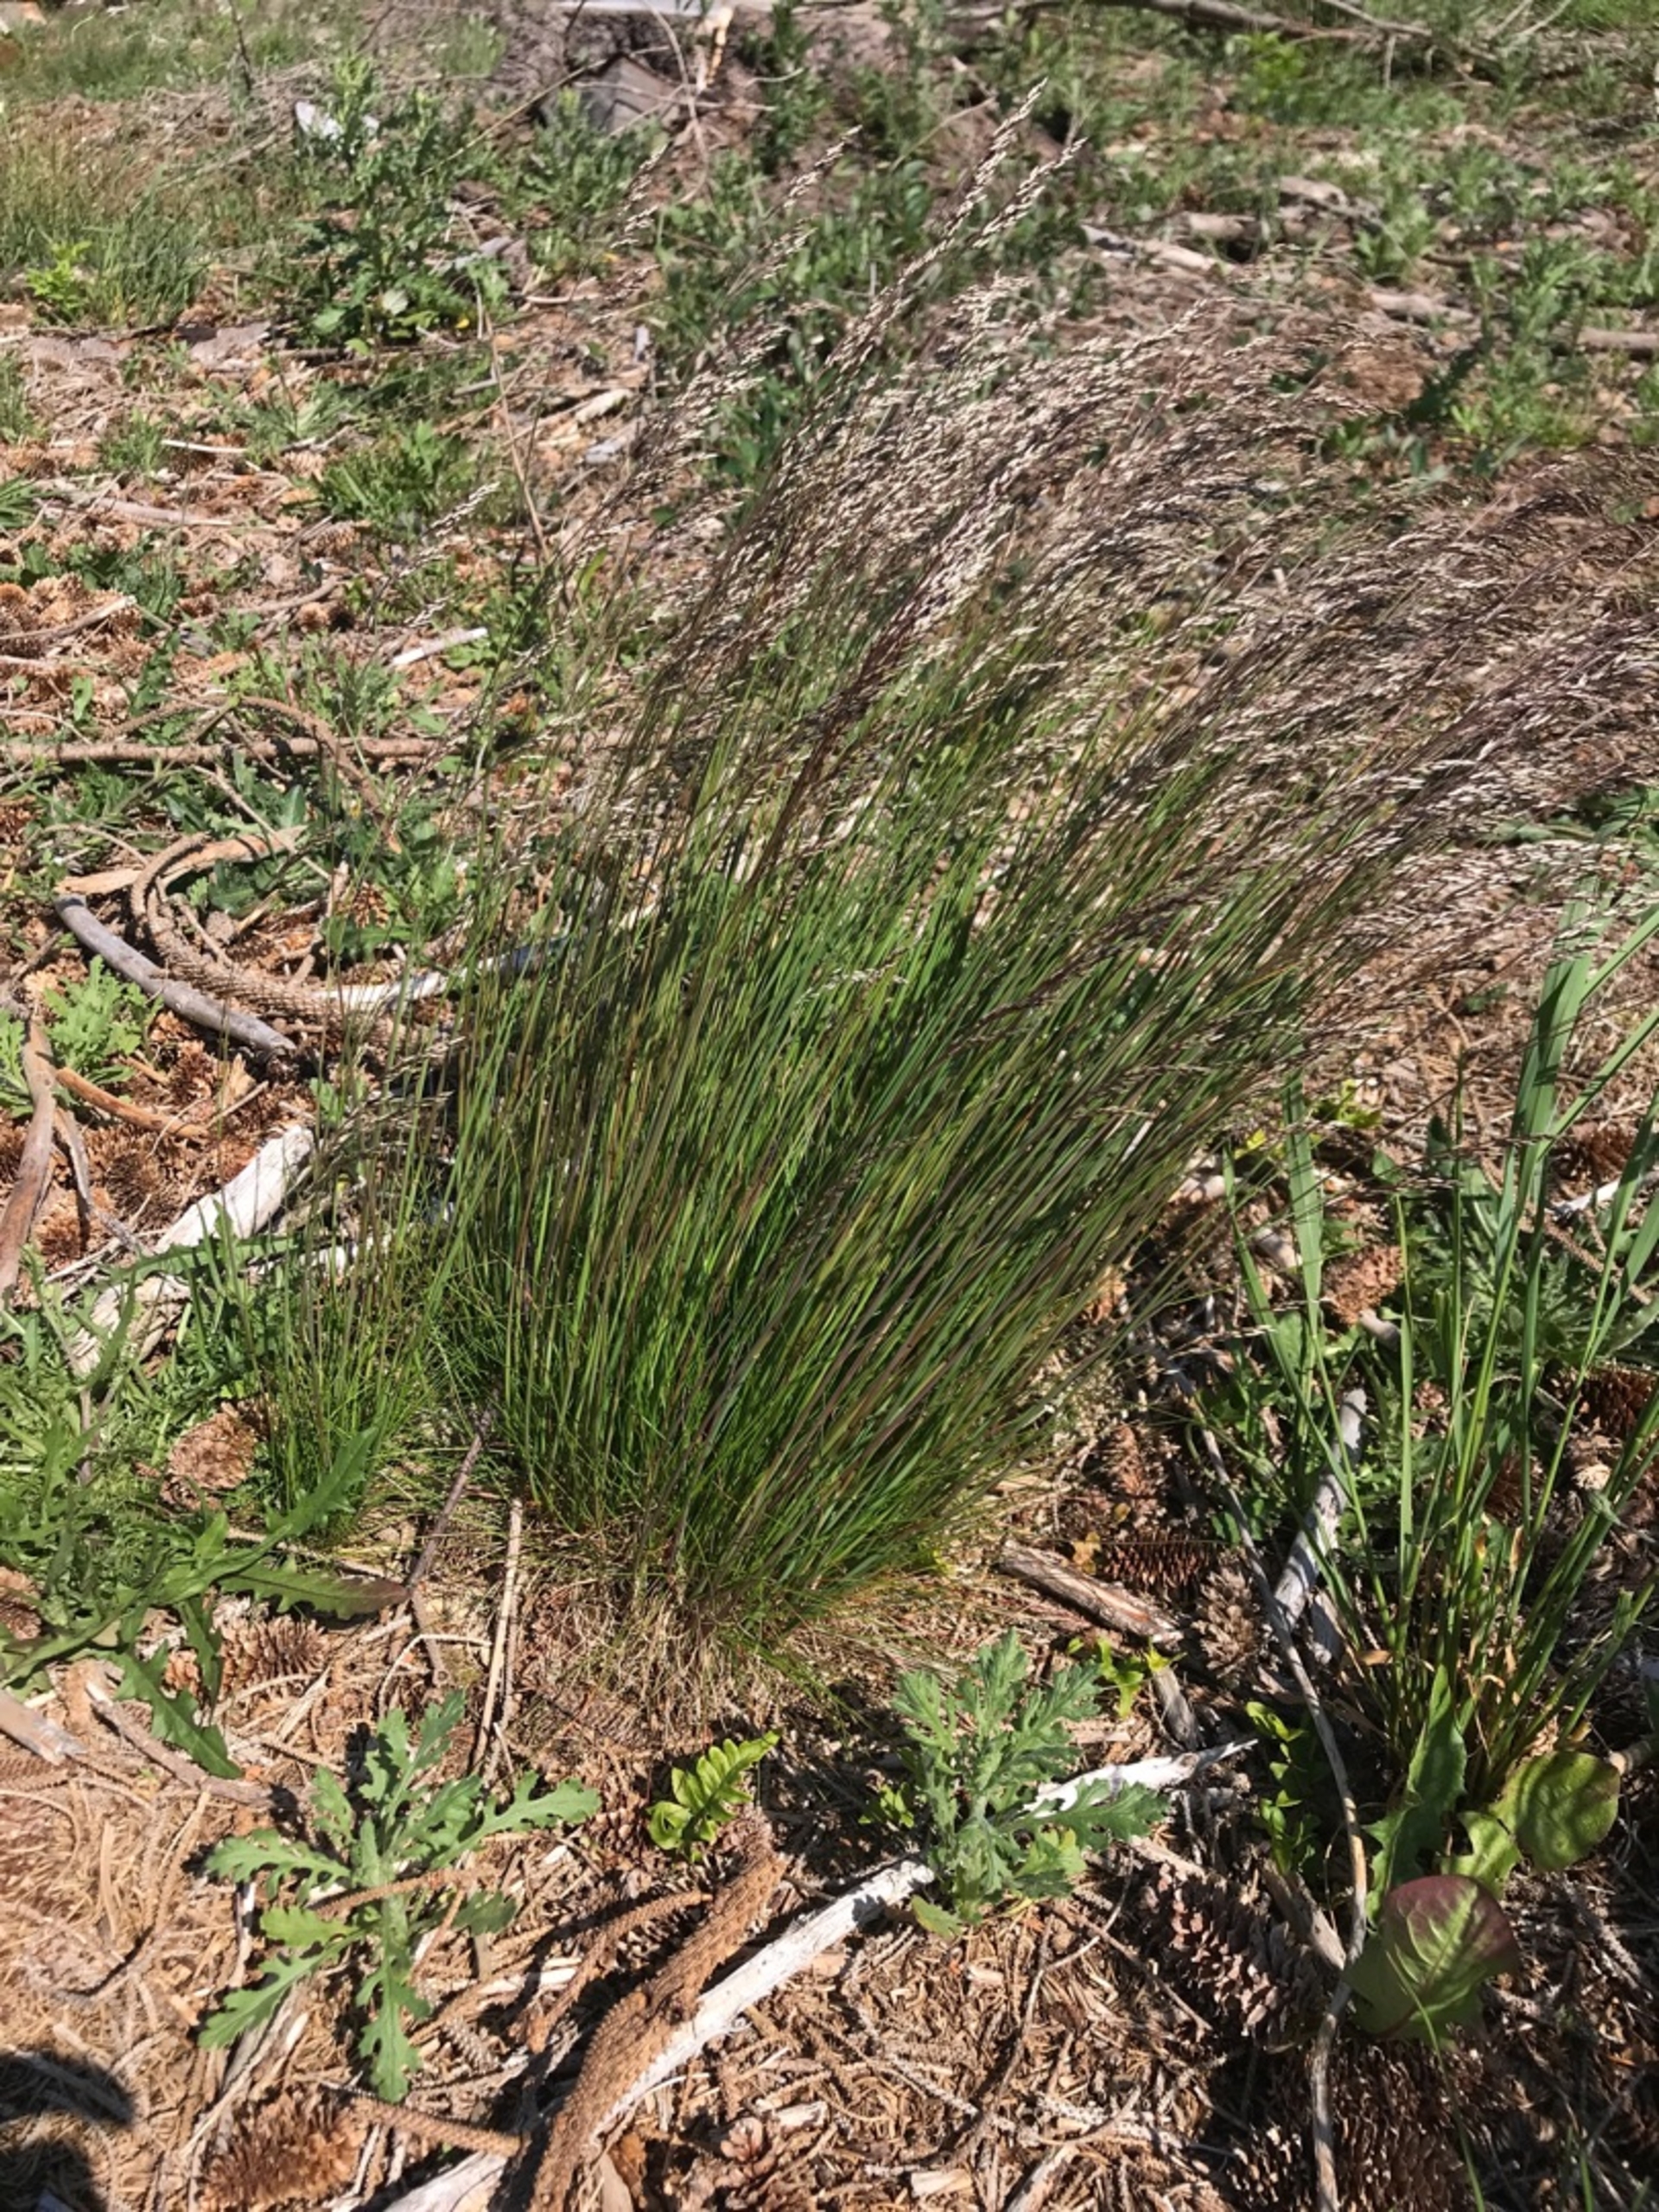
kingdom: Plantae
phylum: Tracheophyta
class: Liliopsida
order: Poales
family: Poaceae
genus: Avenella
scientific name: Avenella flexuosa
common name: Bølget bunke
